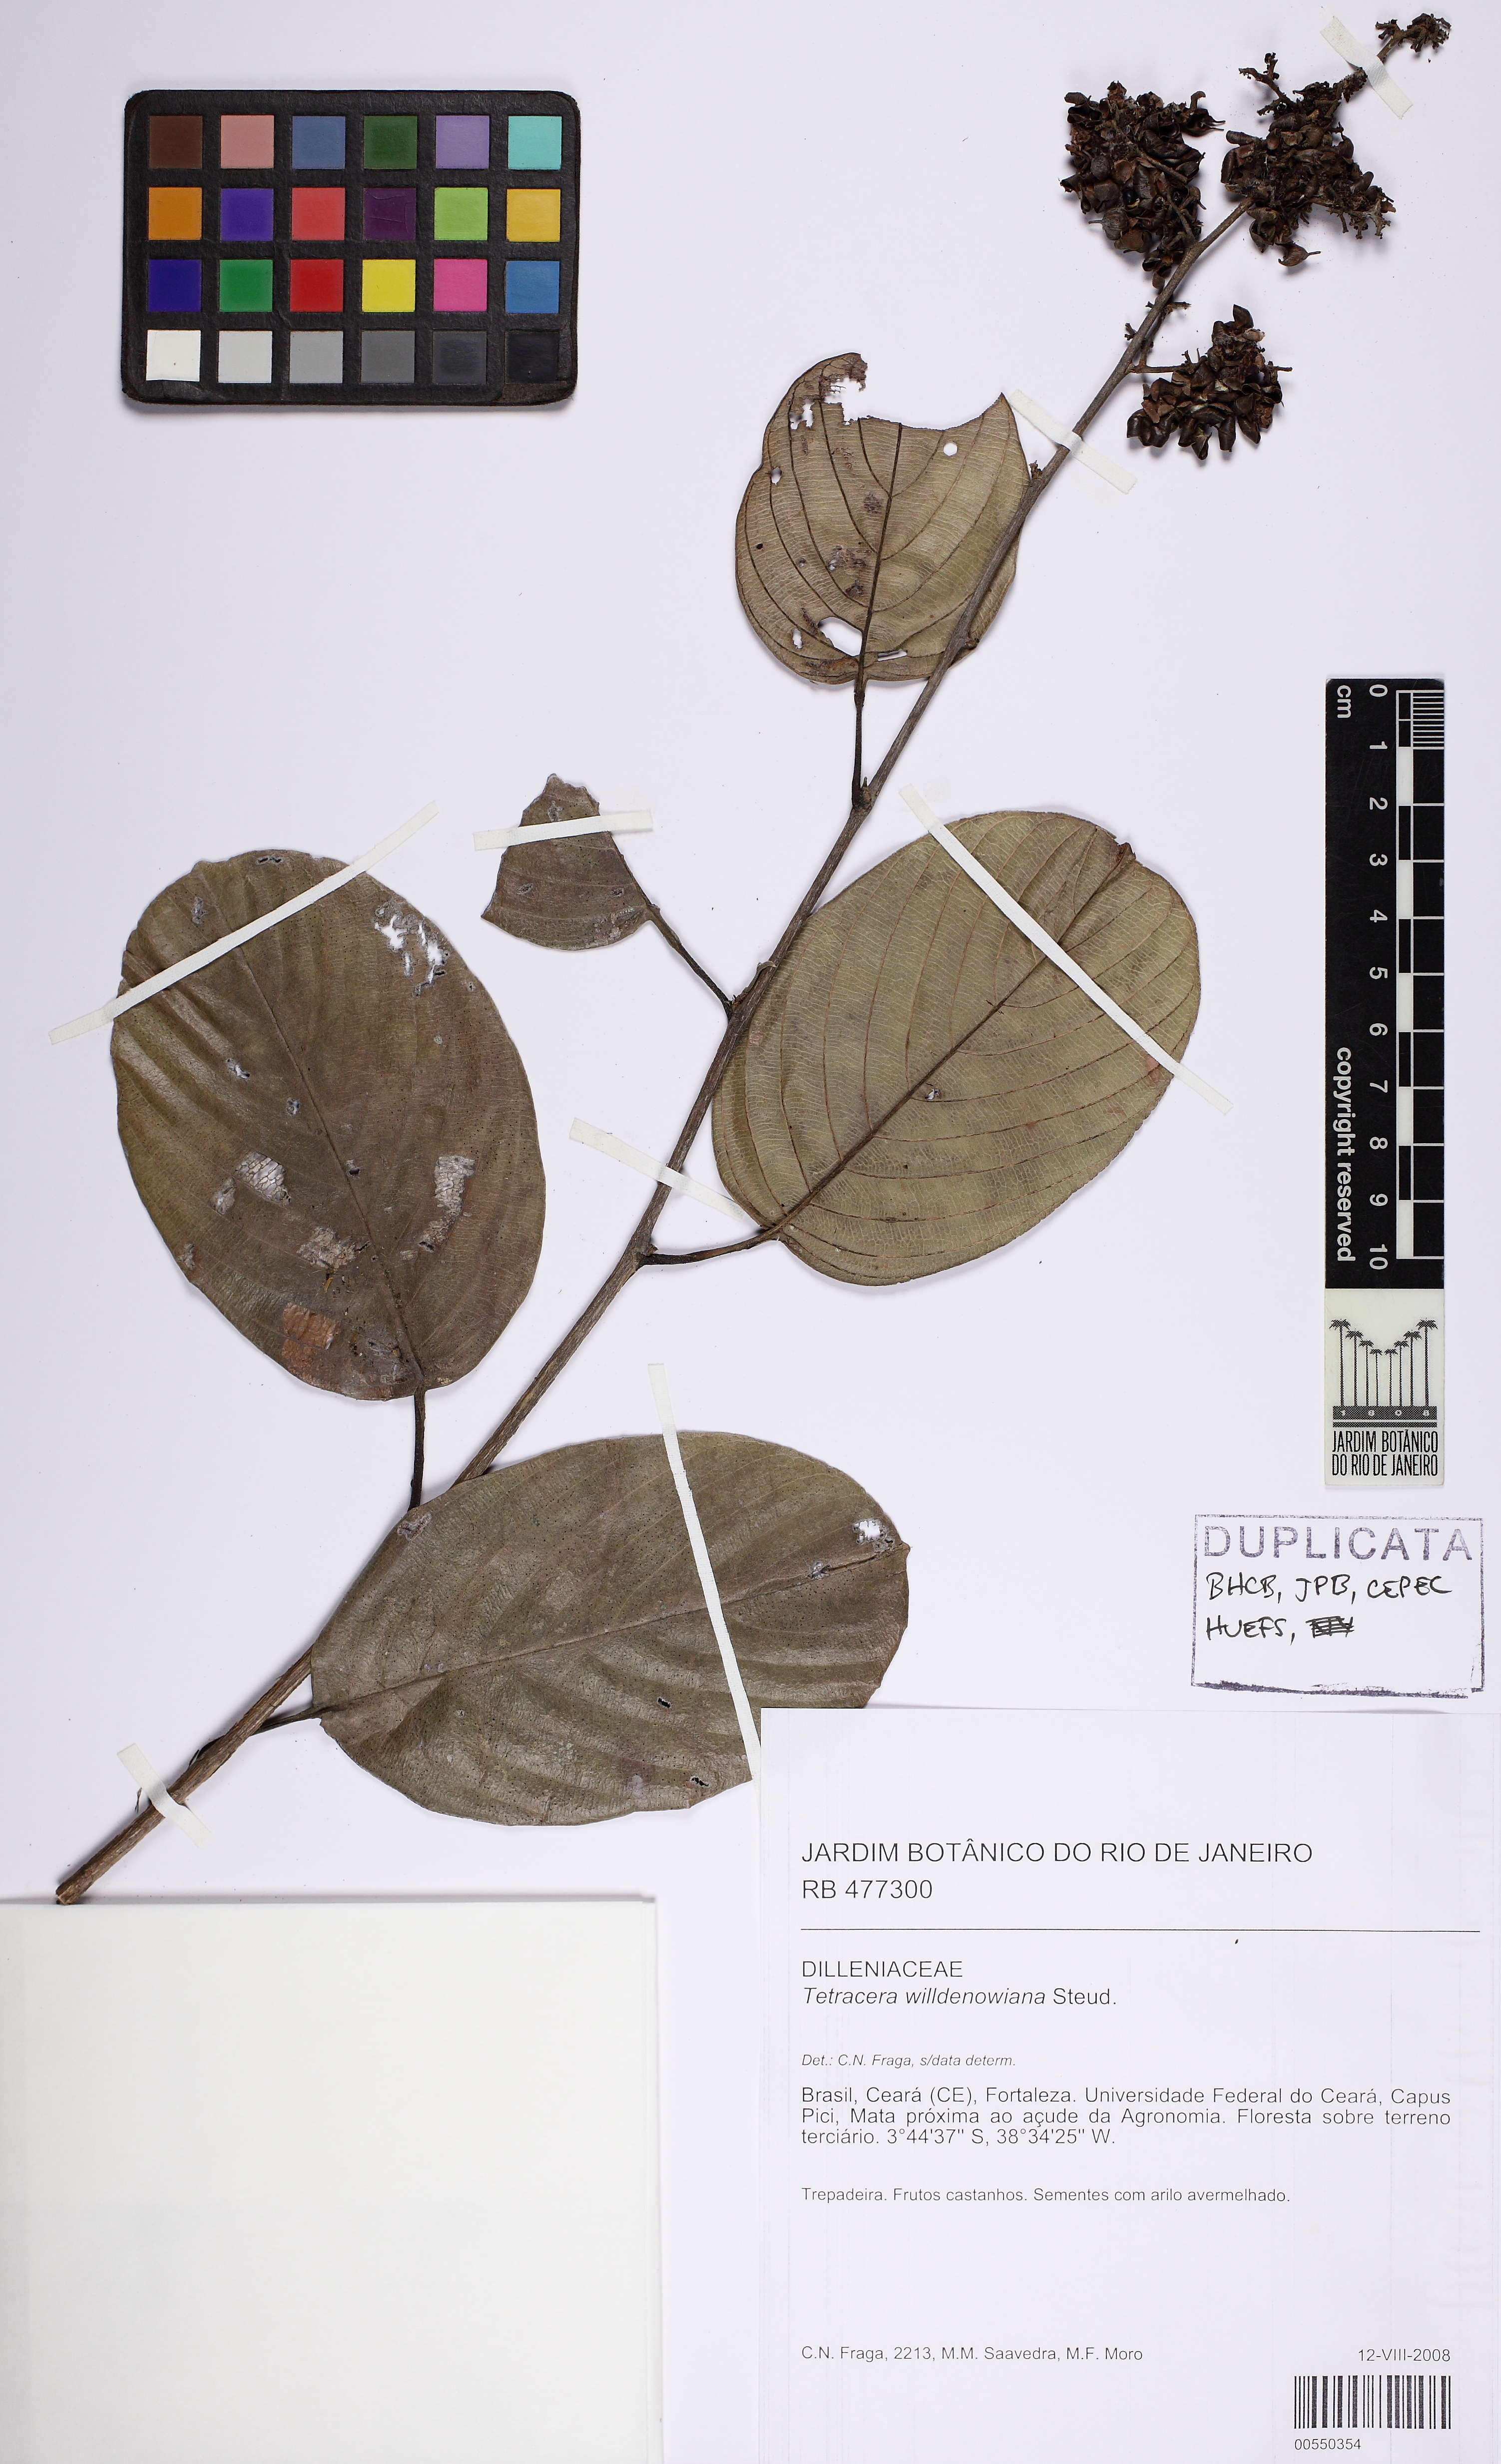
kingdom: Plantae
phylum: Tracheophyta
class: Magnoliopsida
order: Dilleniales
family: Dilleniaceae
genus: Tetracera
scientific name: Tetracera willdenowiana
